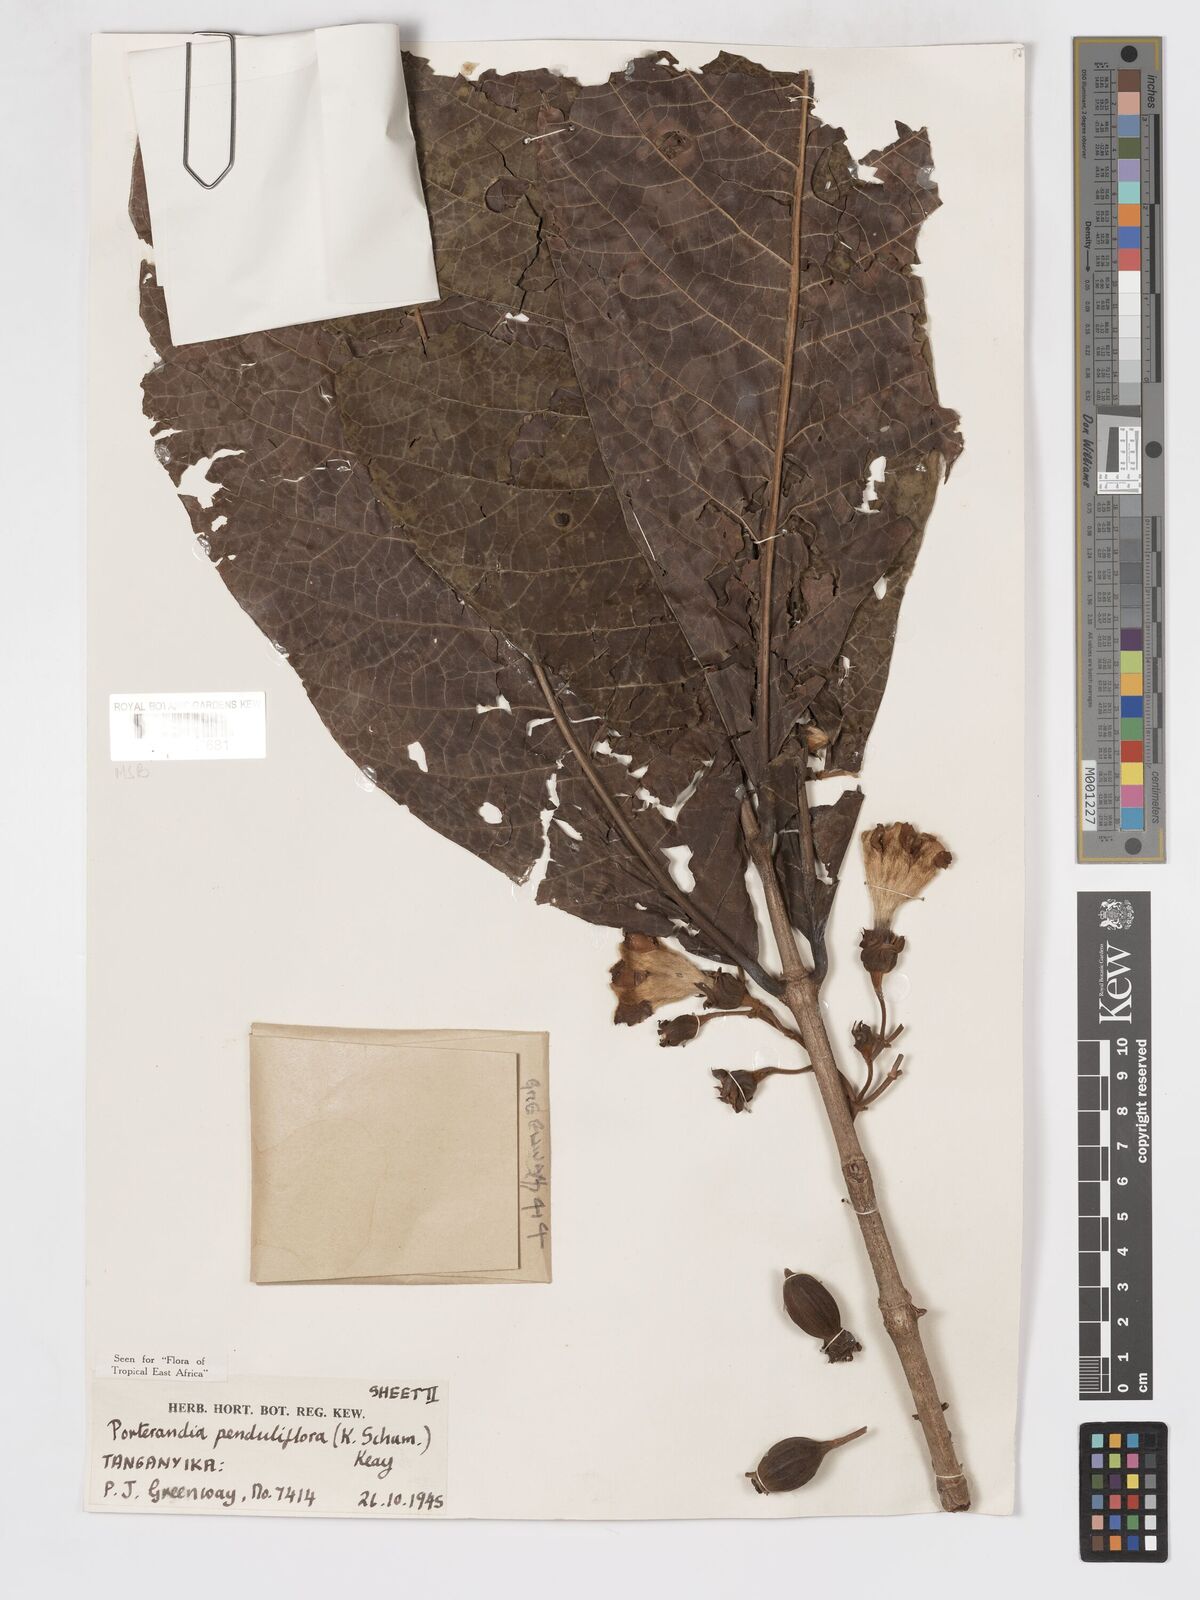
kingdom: Plantae
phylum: Tracheophyta
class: Magnoliopsida
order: Gentianales
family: Rubiaceae
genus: Aoranthe
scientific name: Aoranthe penduliflora
